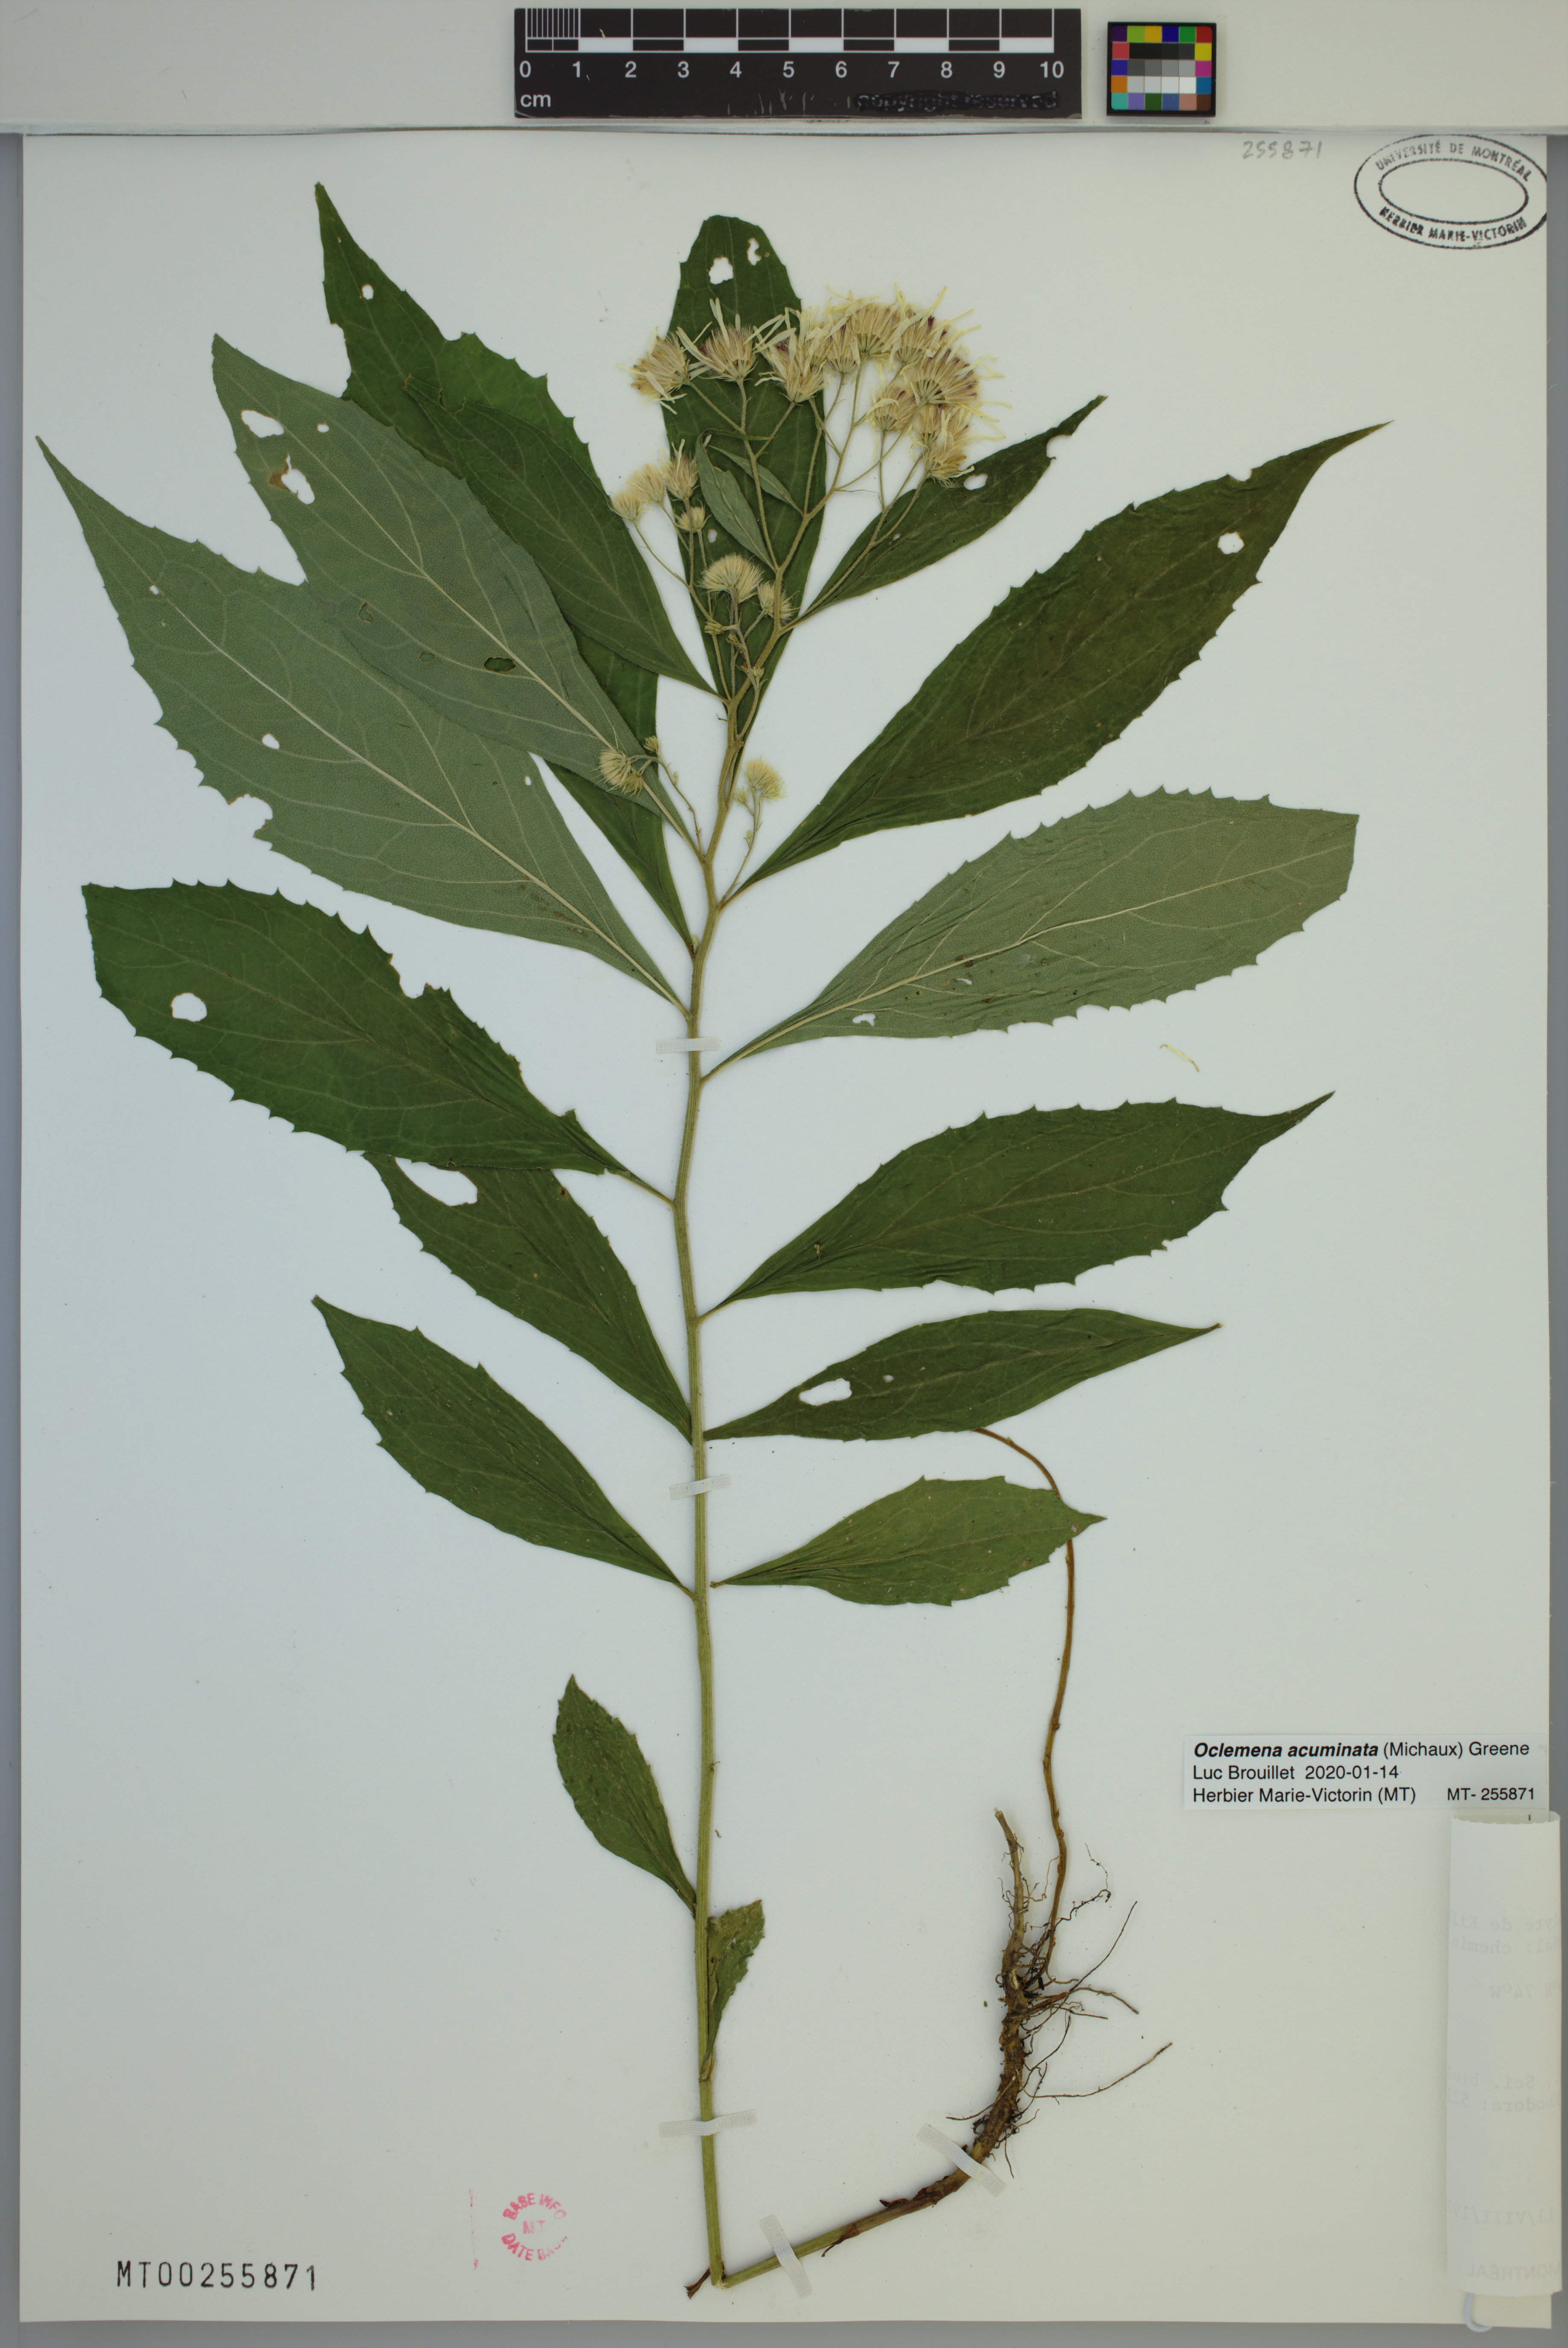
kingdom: Plantae
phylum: Tracheophyta
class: Magnoliopsida
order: Asterales
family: Asteraceae
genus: Oclemena
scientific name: Oclemena acuminata
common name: Mountain aster
